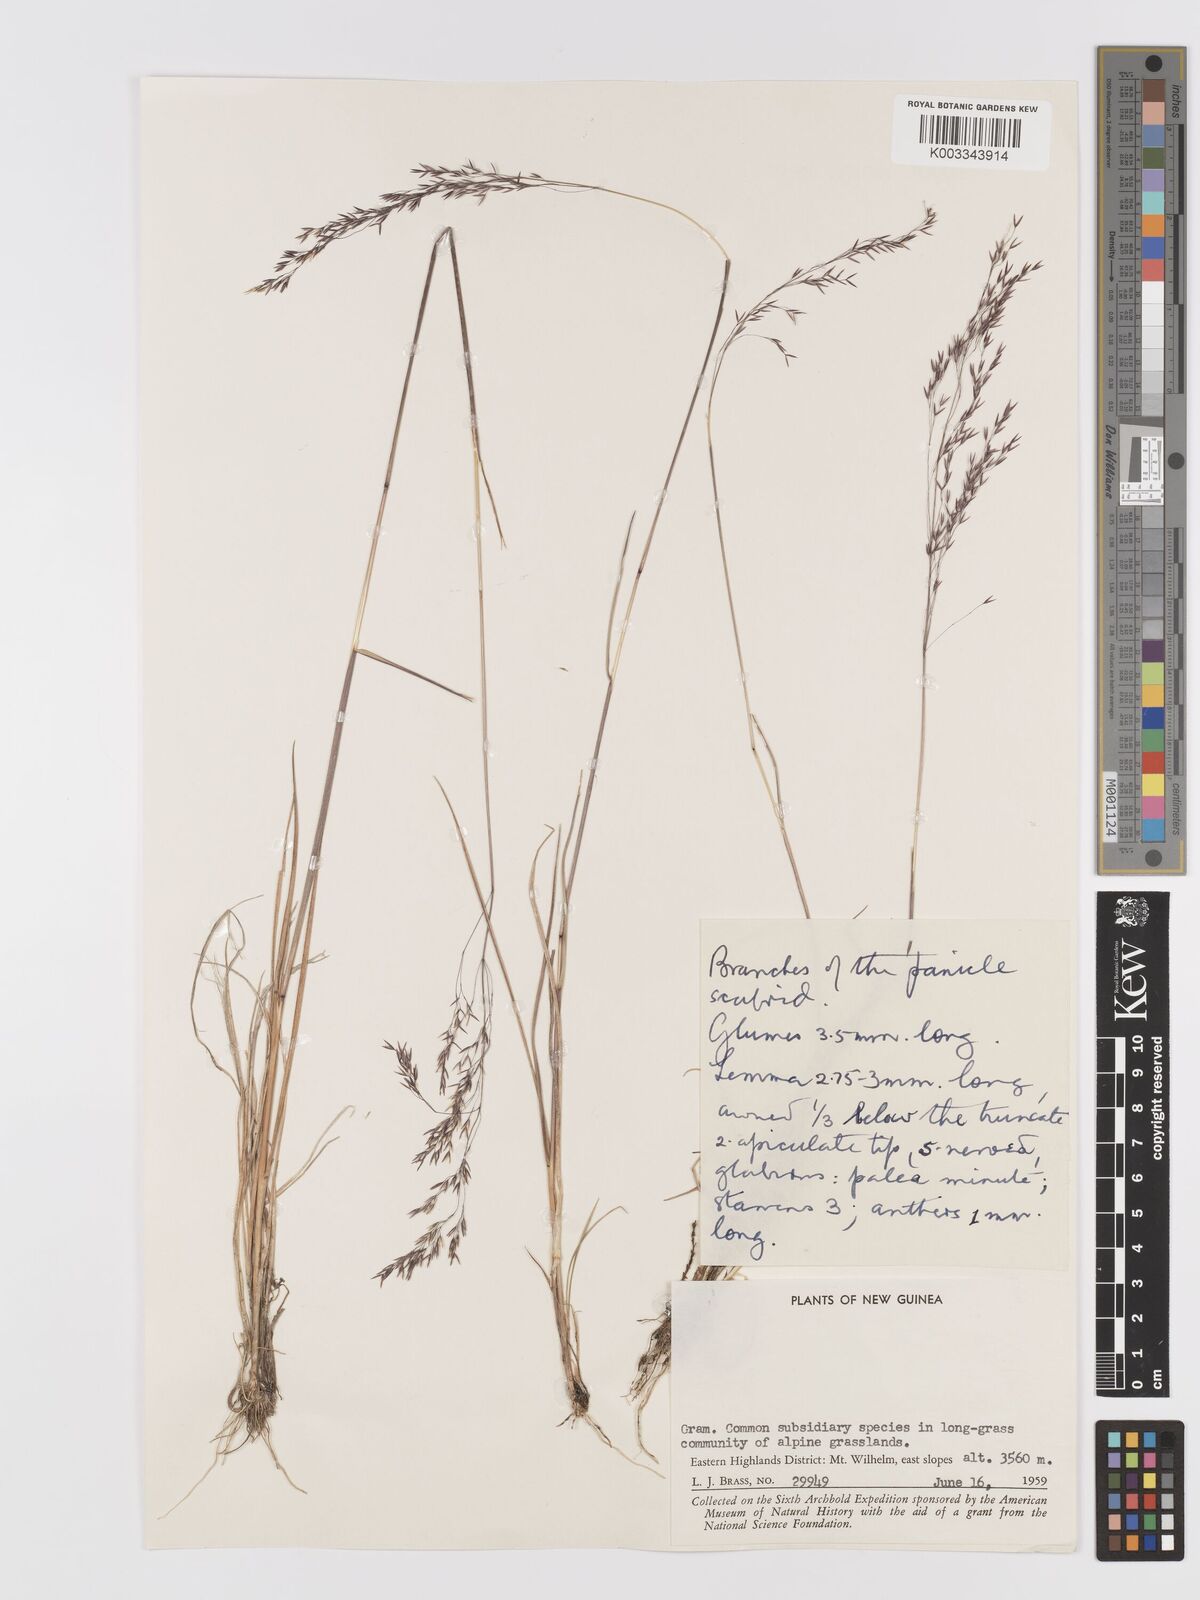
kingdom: Plantae
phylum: Tracheophyta
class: Liliopsida
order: Poales
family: Poaceae
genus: Agrostis
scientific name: Agrostis infirma
